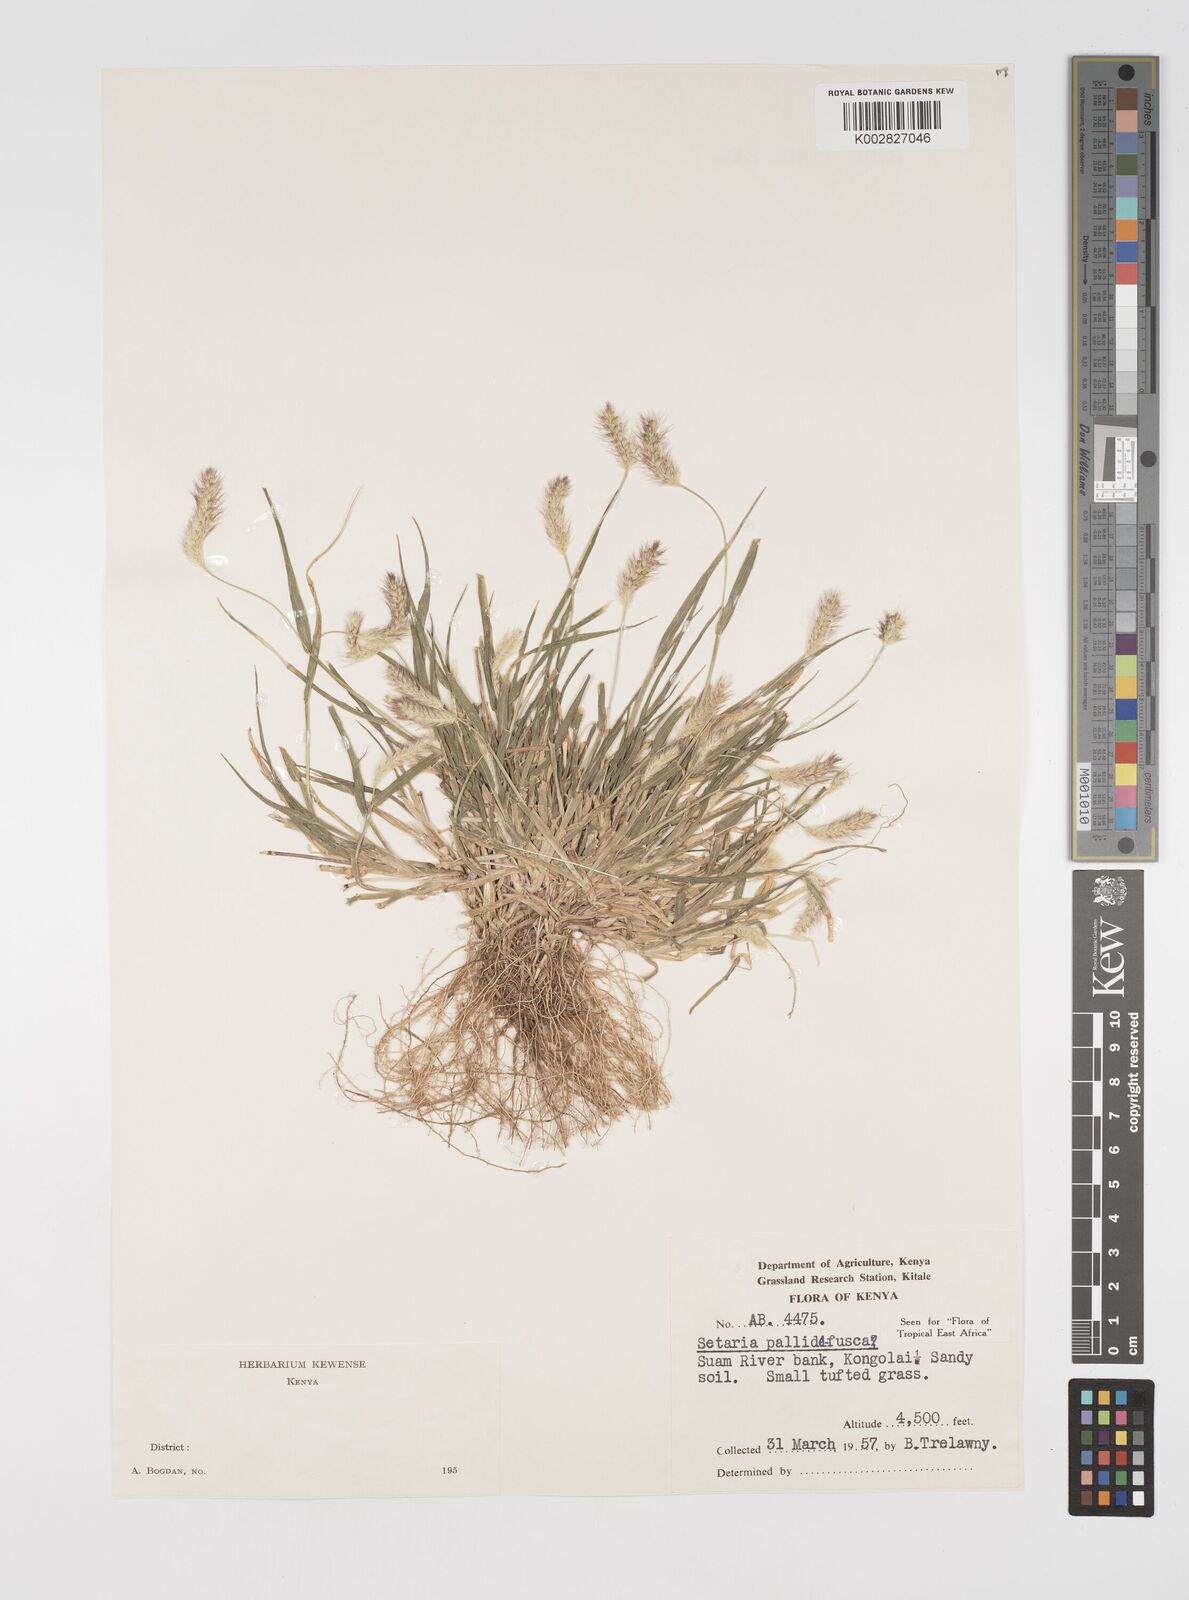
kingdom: Plantae
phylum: Tracheophyta
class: Liliopsida
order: Poales
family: Poaceae
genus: Setaria
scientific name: Setaria pumila
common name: Yellow bristle-grass
